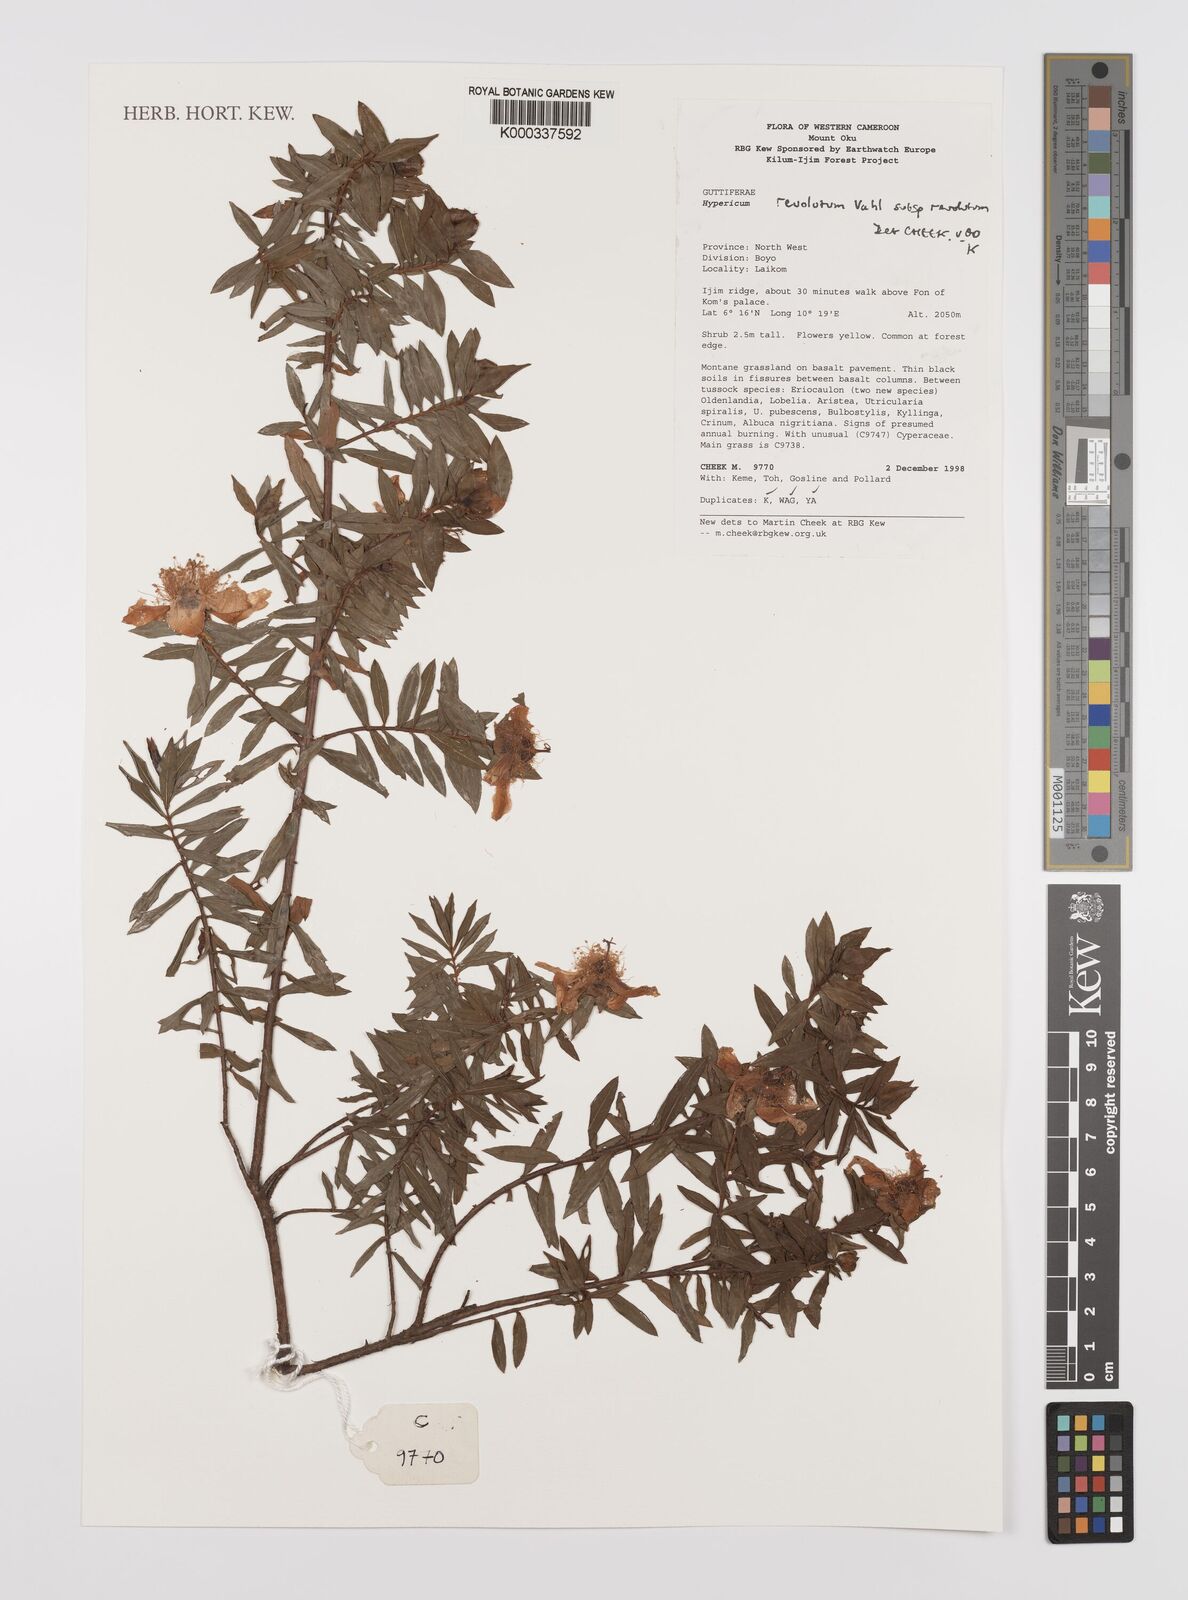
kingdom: Plantae
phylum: Tracheophyta
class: Magnoliopsida
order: Malpighiales
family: Hypericaceae
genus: Hypericum
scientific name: Hypericum revolutum
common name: Curry bush
